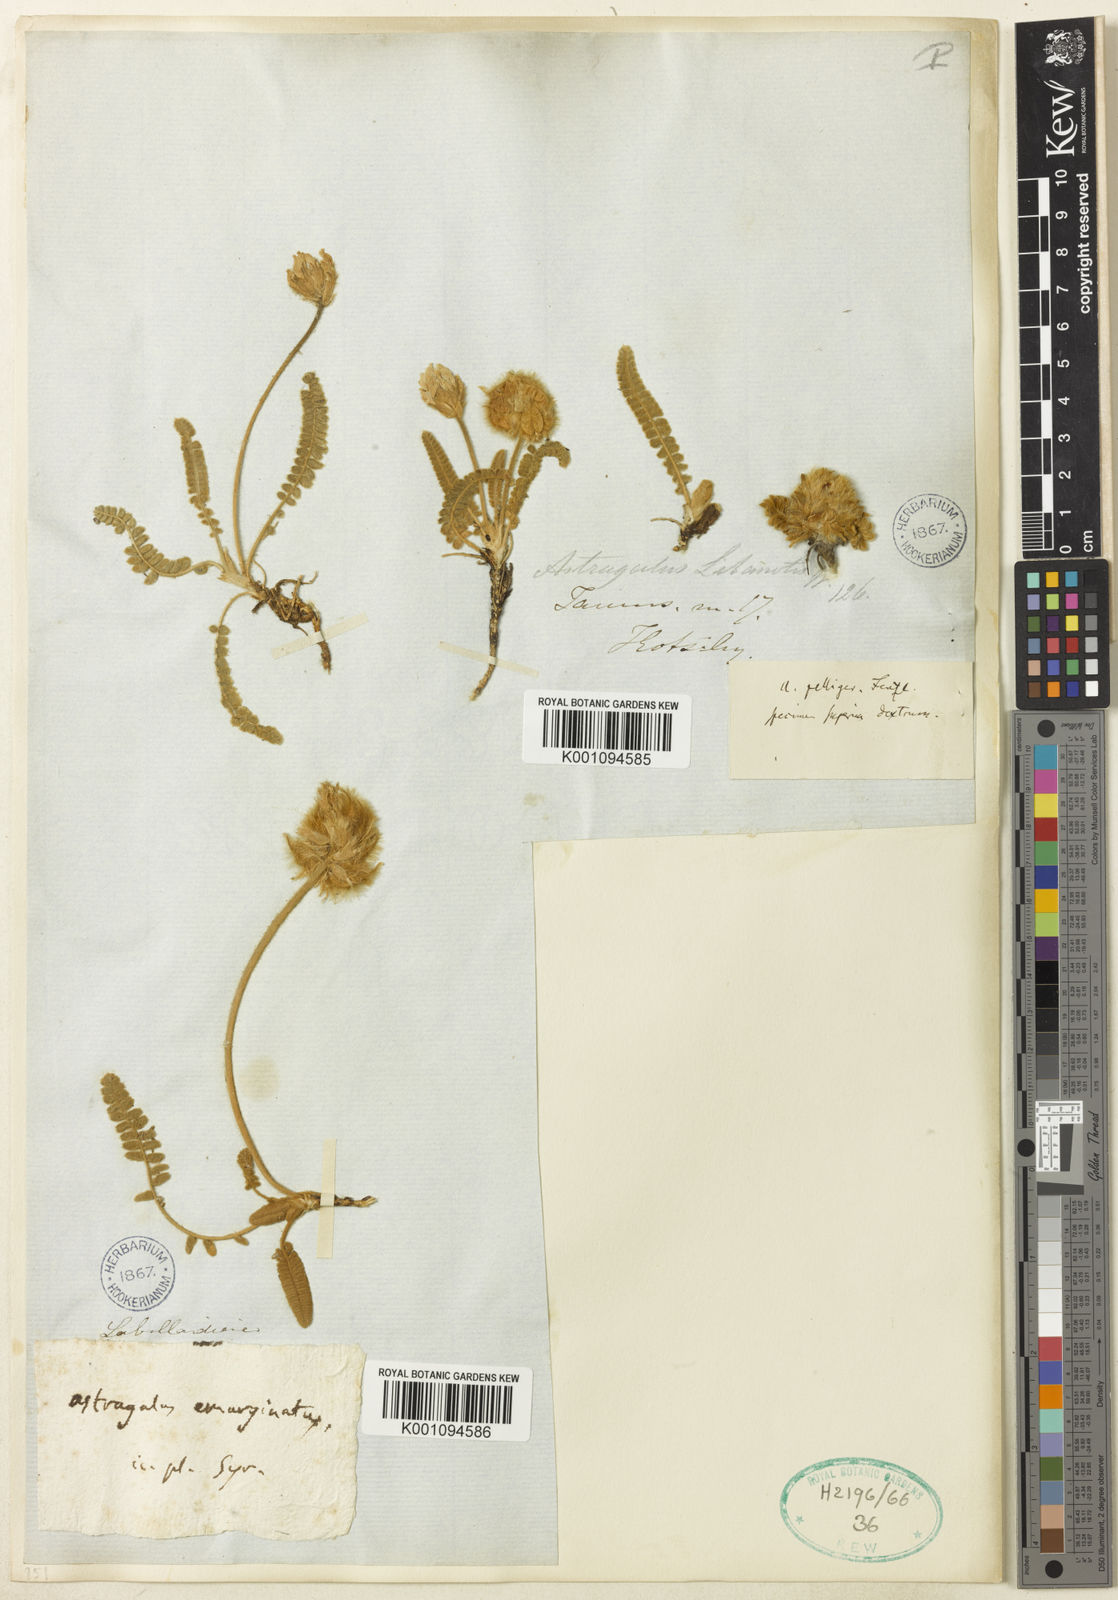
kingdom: Plantae
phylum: Tracheophyta
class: Magnoliopsida
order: Fabales
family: Fabaceae
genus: Astragalus
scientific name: Astragalus
